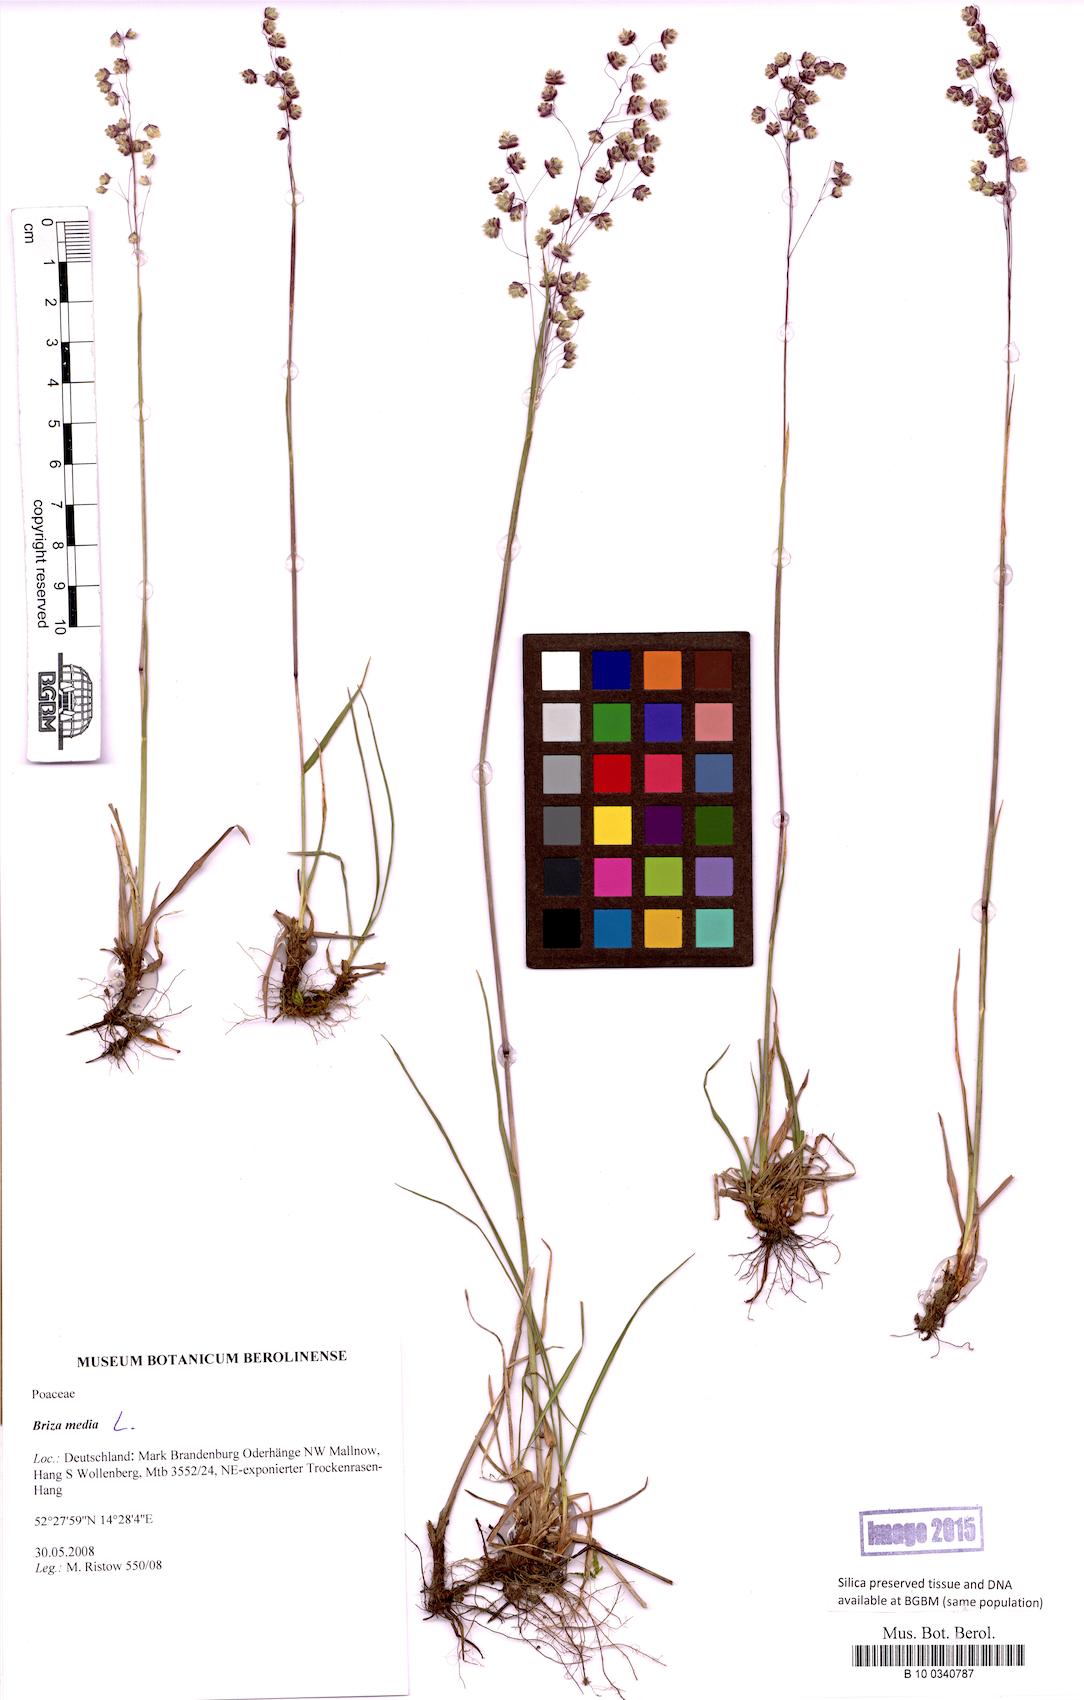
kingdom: Plantae
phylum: Tracheophyta
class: Liliopsida
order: Poales
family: Poaceae
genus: Briza
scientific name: Briza media
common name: Quaking grass
